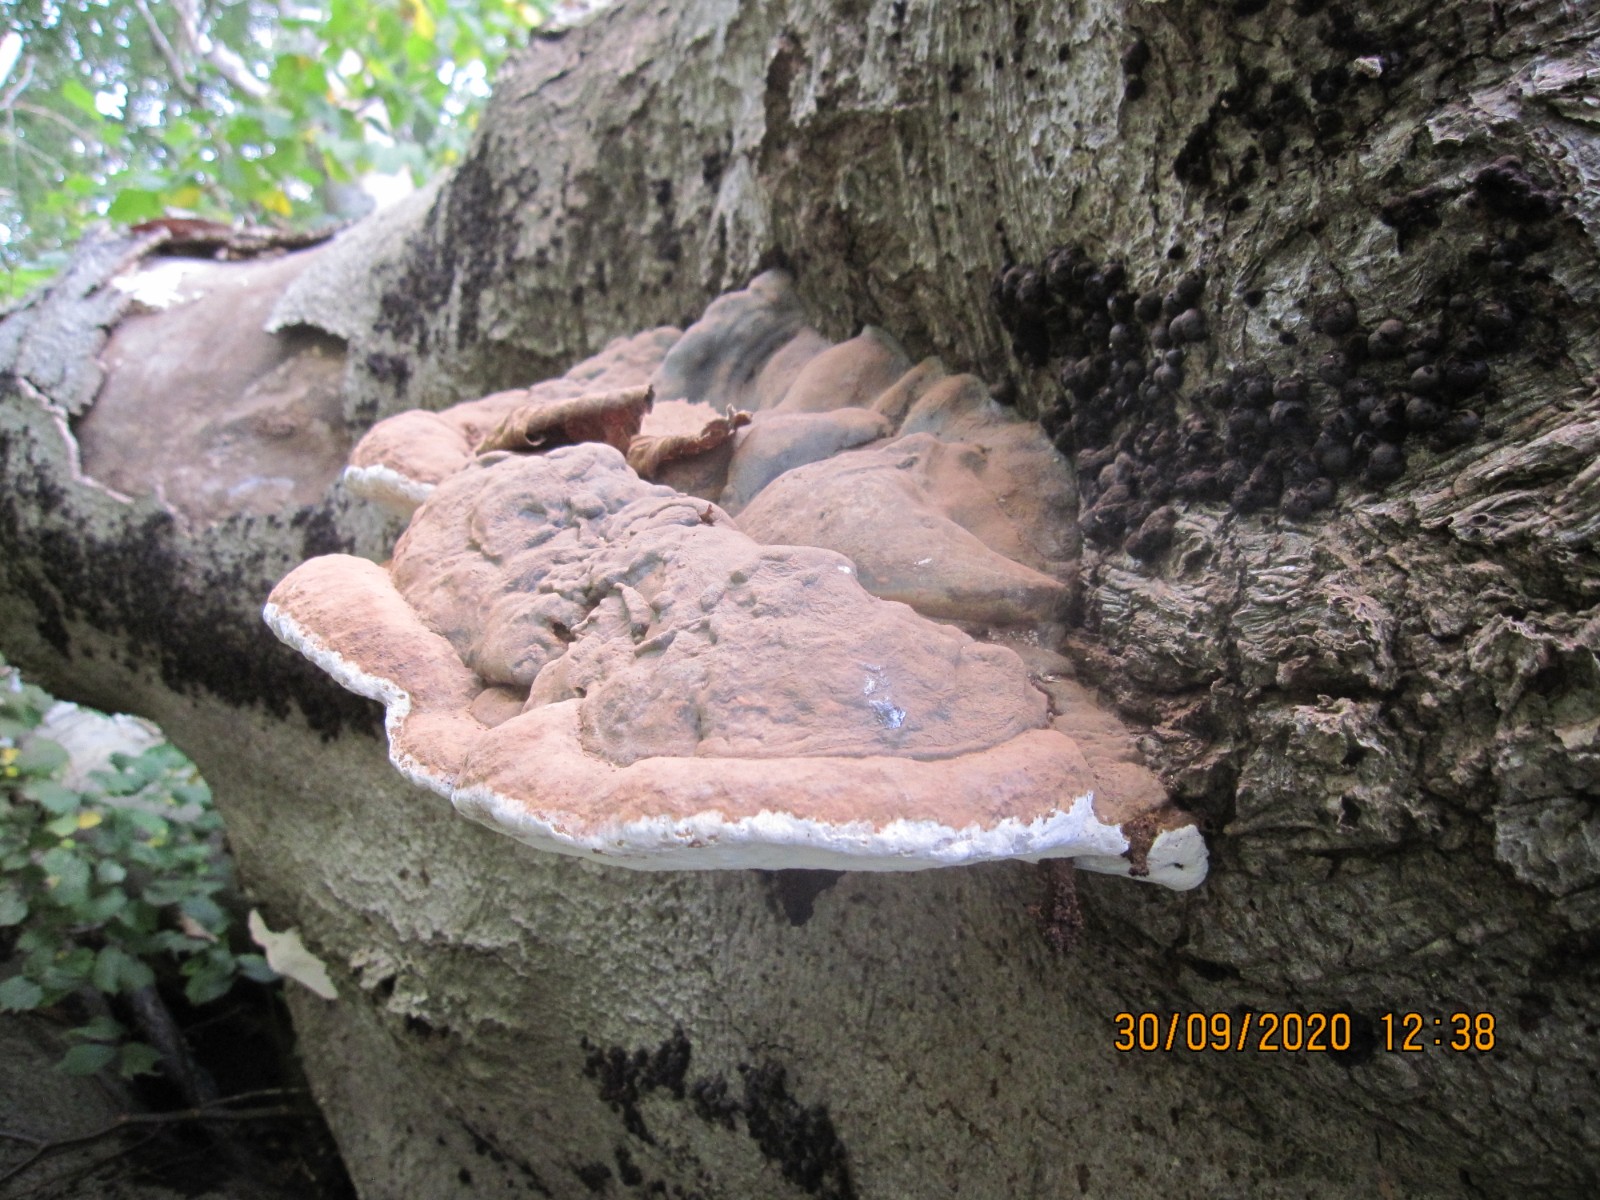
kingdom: Fungi
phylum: Basidiomycota
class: Agaricomycetes
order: Polyporales
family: Polyporaceae
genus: Ganoderma
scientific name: Ganoderma pfeifferi
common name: kobberrød lakporesvamp
